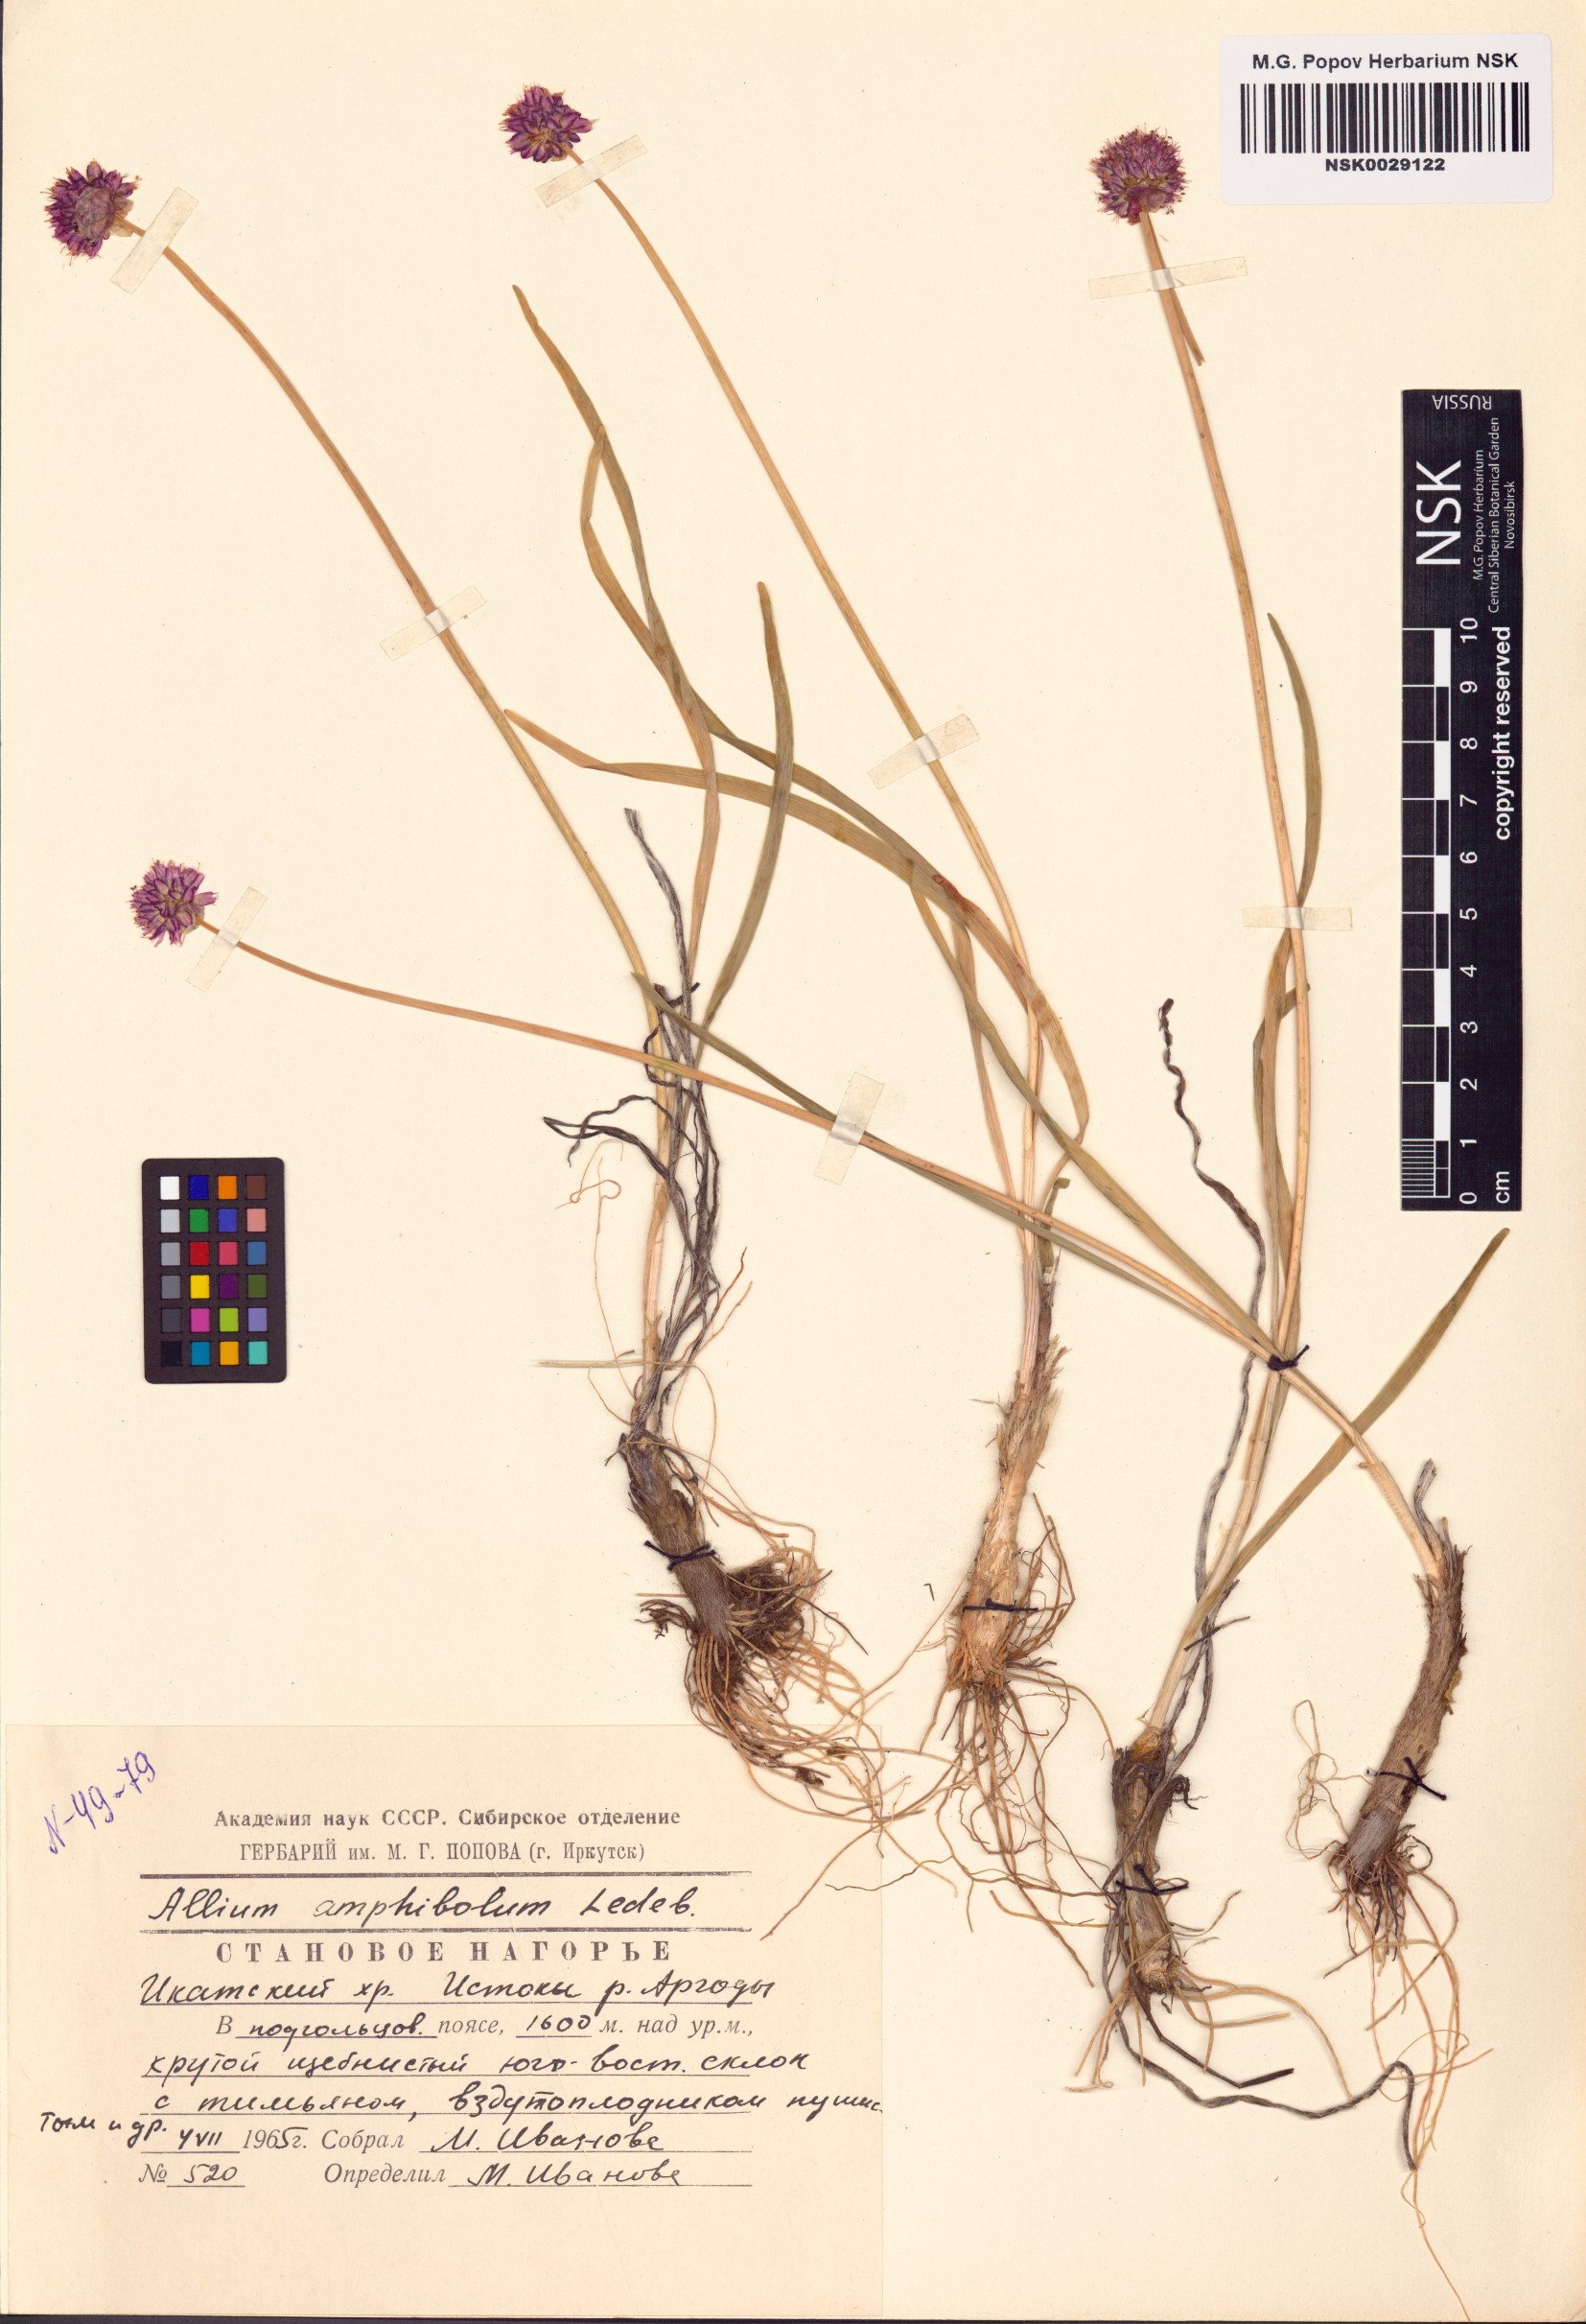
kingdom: Plantae
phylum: Tracheophyta
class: Liliopsida
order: Asparagales
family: Amaryllidaceae
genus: Allium
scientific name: Allium amphibolum
